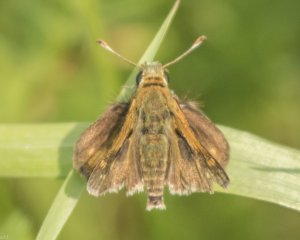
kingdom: Animalia
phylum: Arthropoda
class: Insecta
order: Lepidoptera
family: Hesperiidae
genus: Polites
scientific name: Polites themistocles
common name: Tawny-edged Skipper
